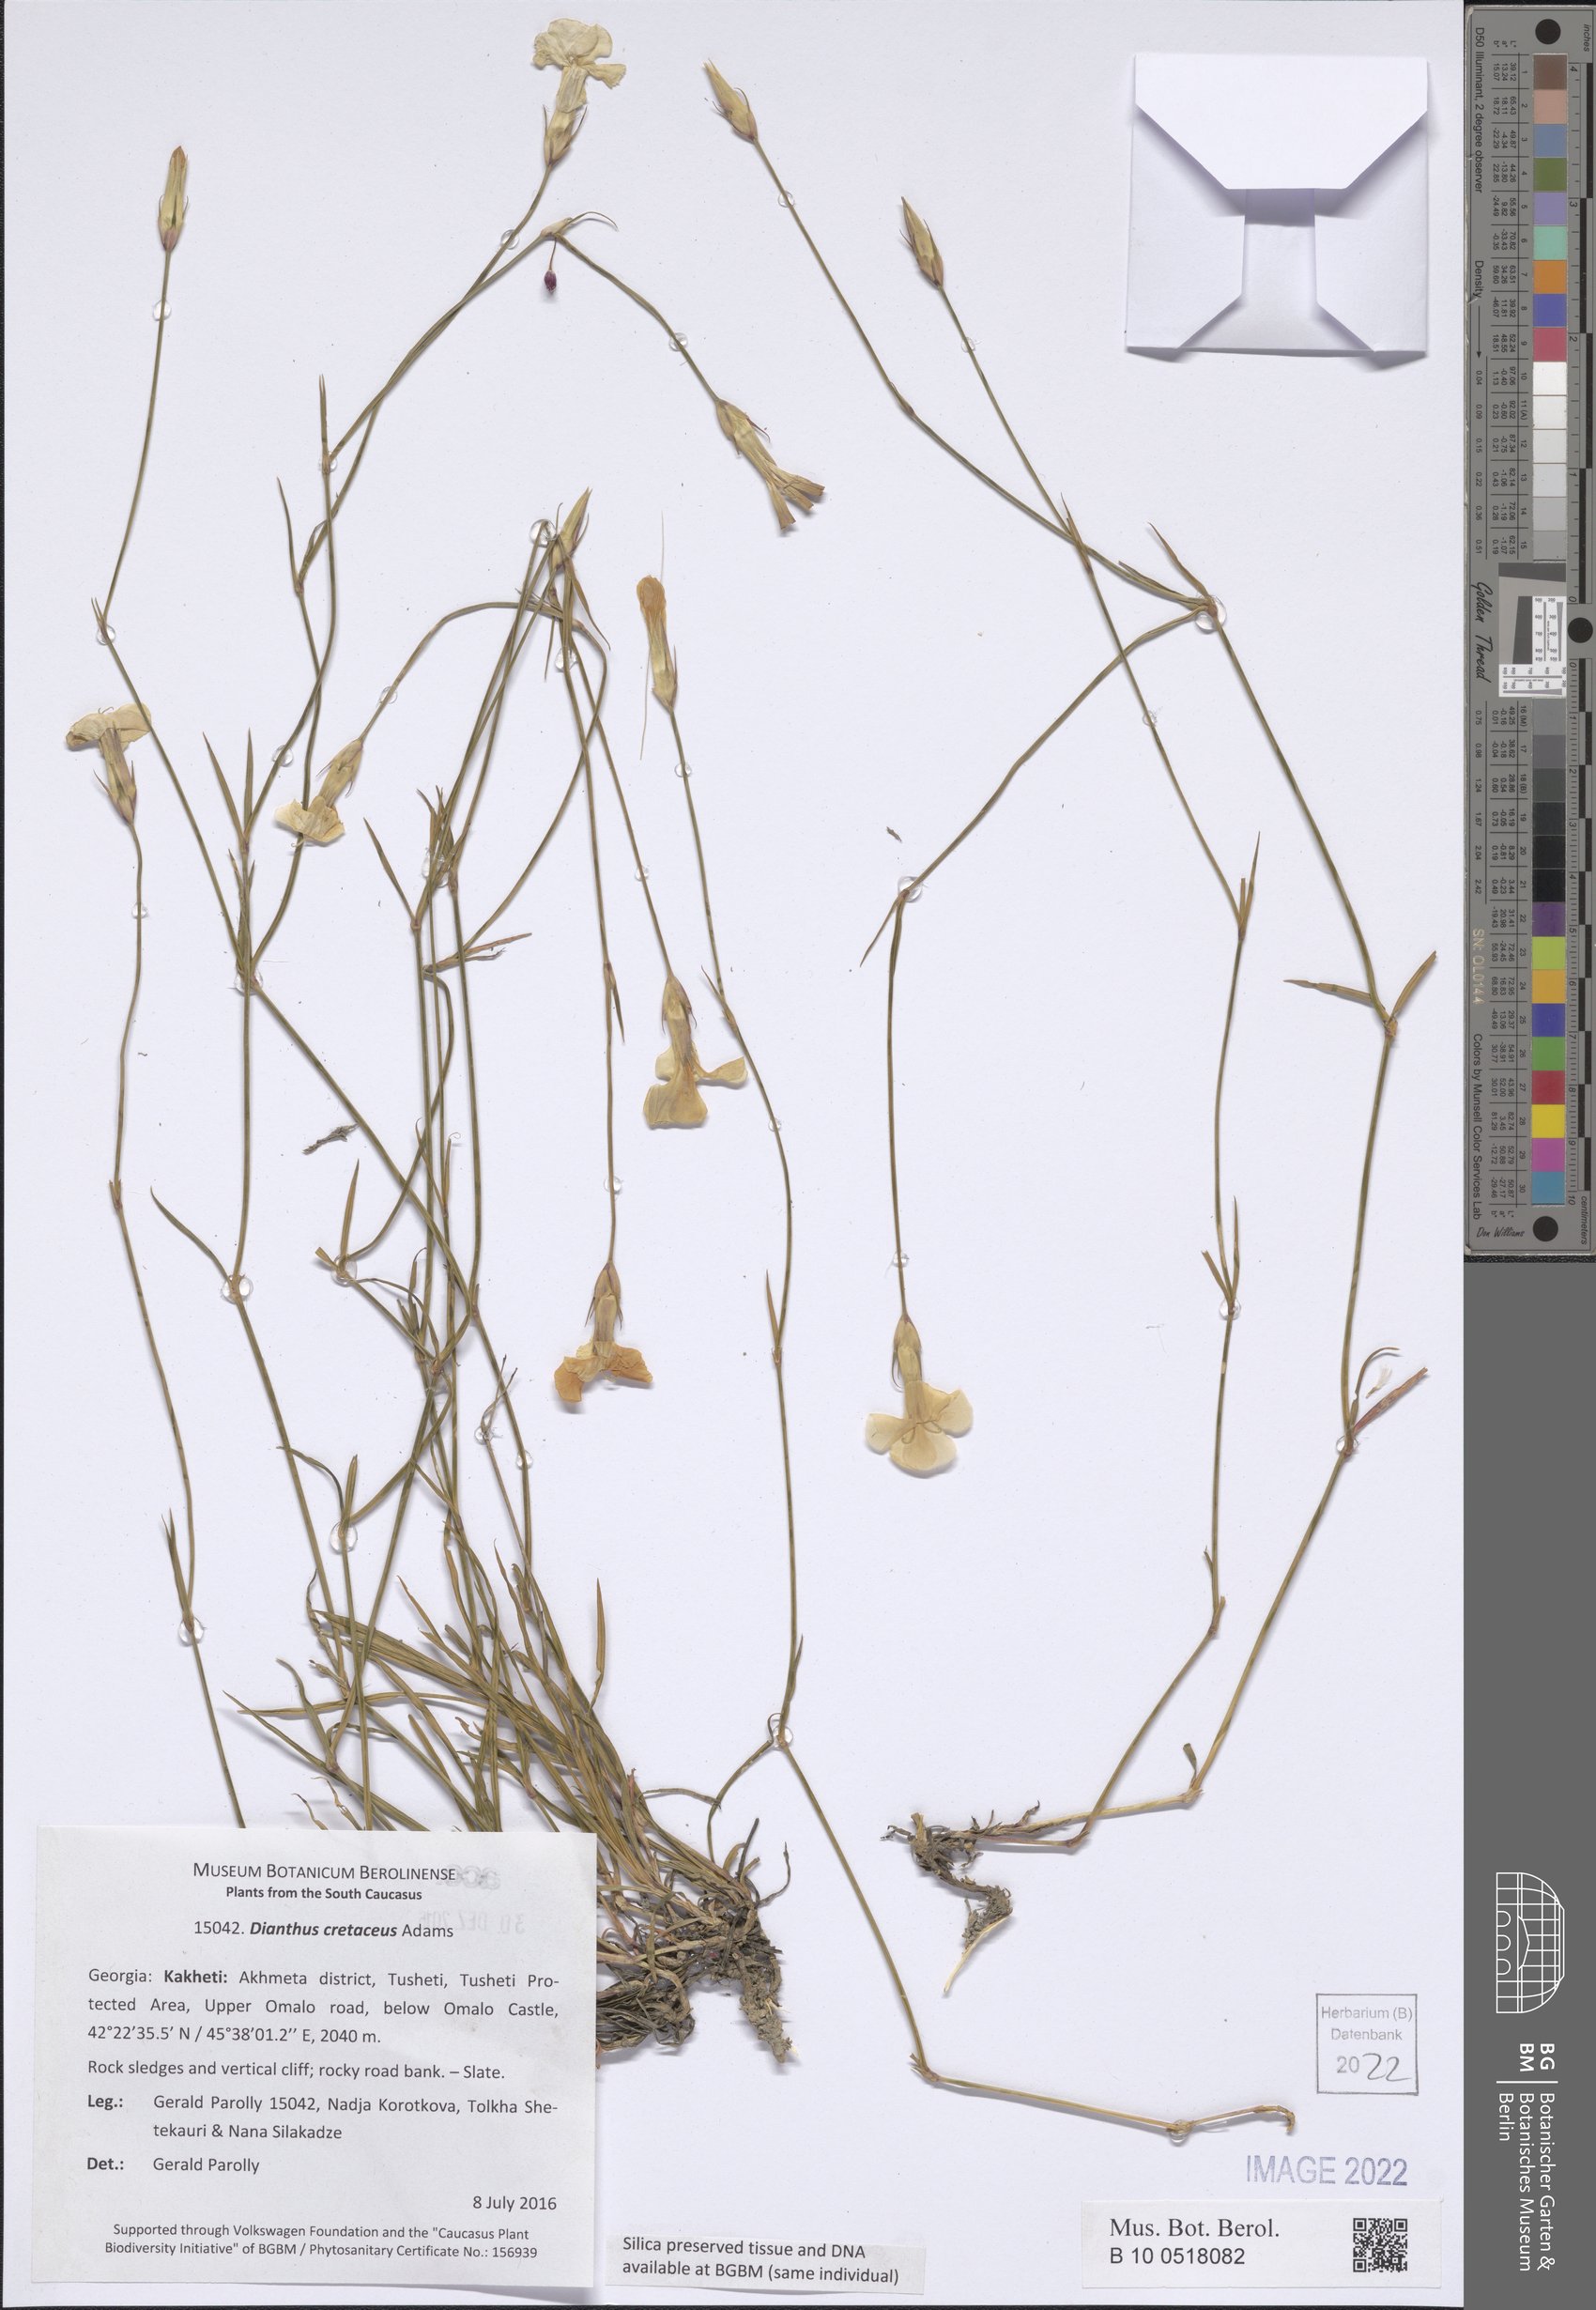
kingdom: Plantae
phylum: Tracheophyta
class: Magnoliopsida
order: Caryophyllales
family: Caryophyllaceae
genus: Dianthus
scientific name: Dianthus cretaceus
